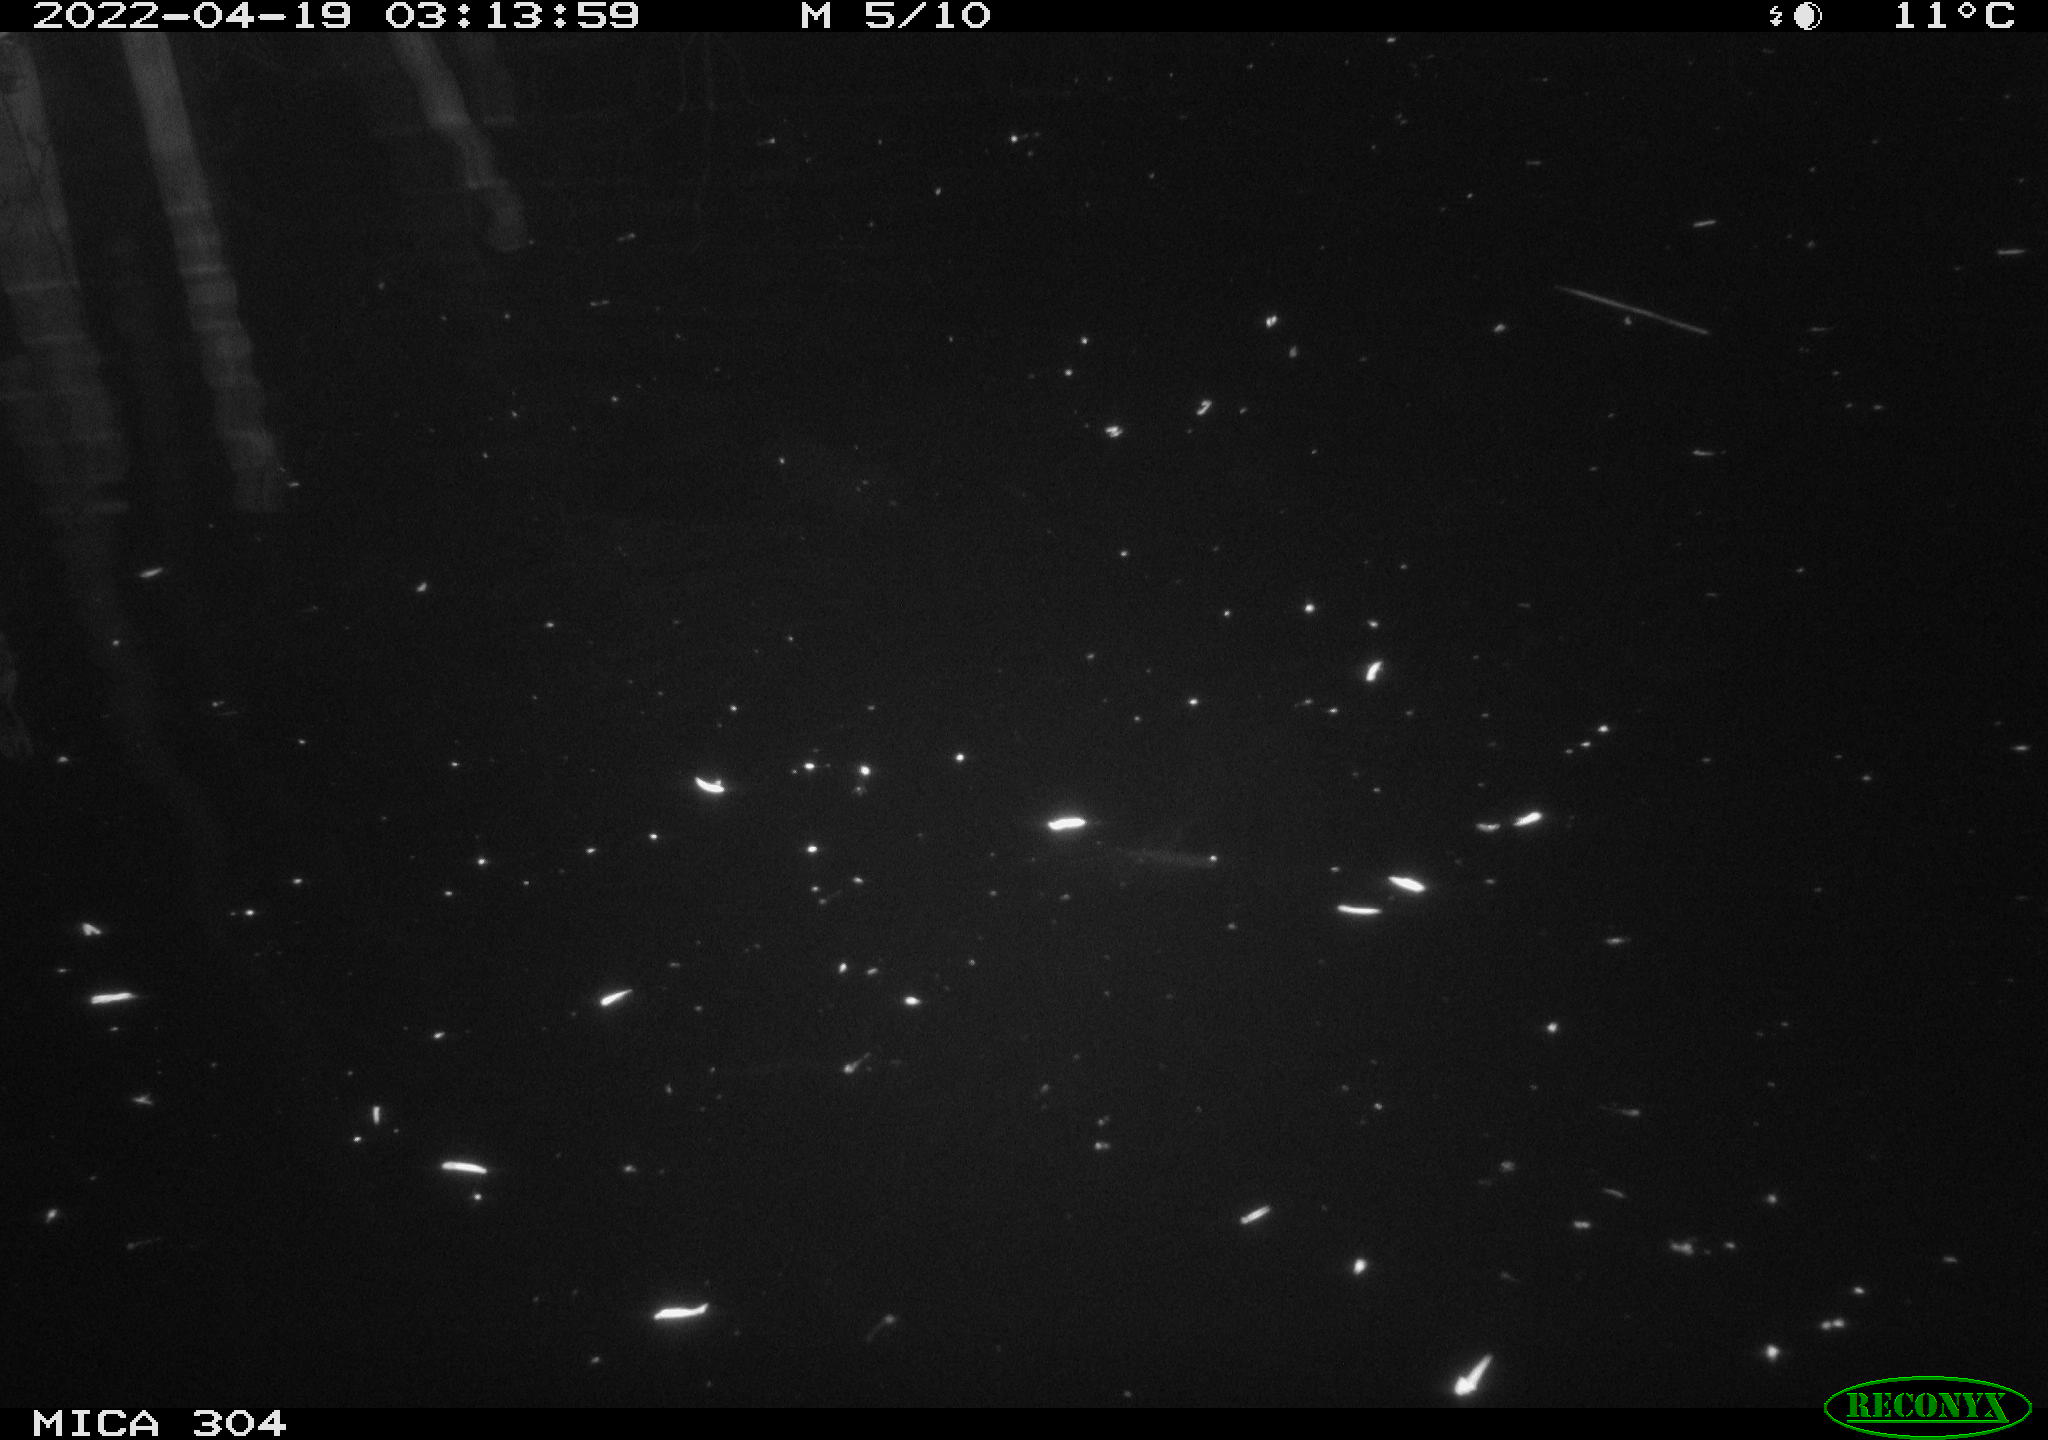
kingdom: Animalia
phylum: Chordata
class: Mammalia
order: Rodentia
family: Muridae
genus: Rattus
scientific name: Rattus norvegicus
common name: Brown rat
